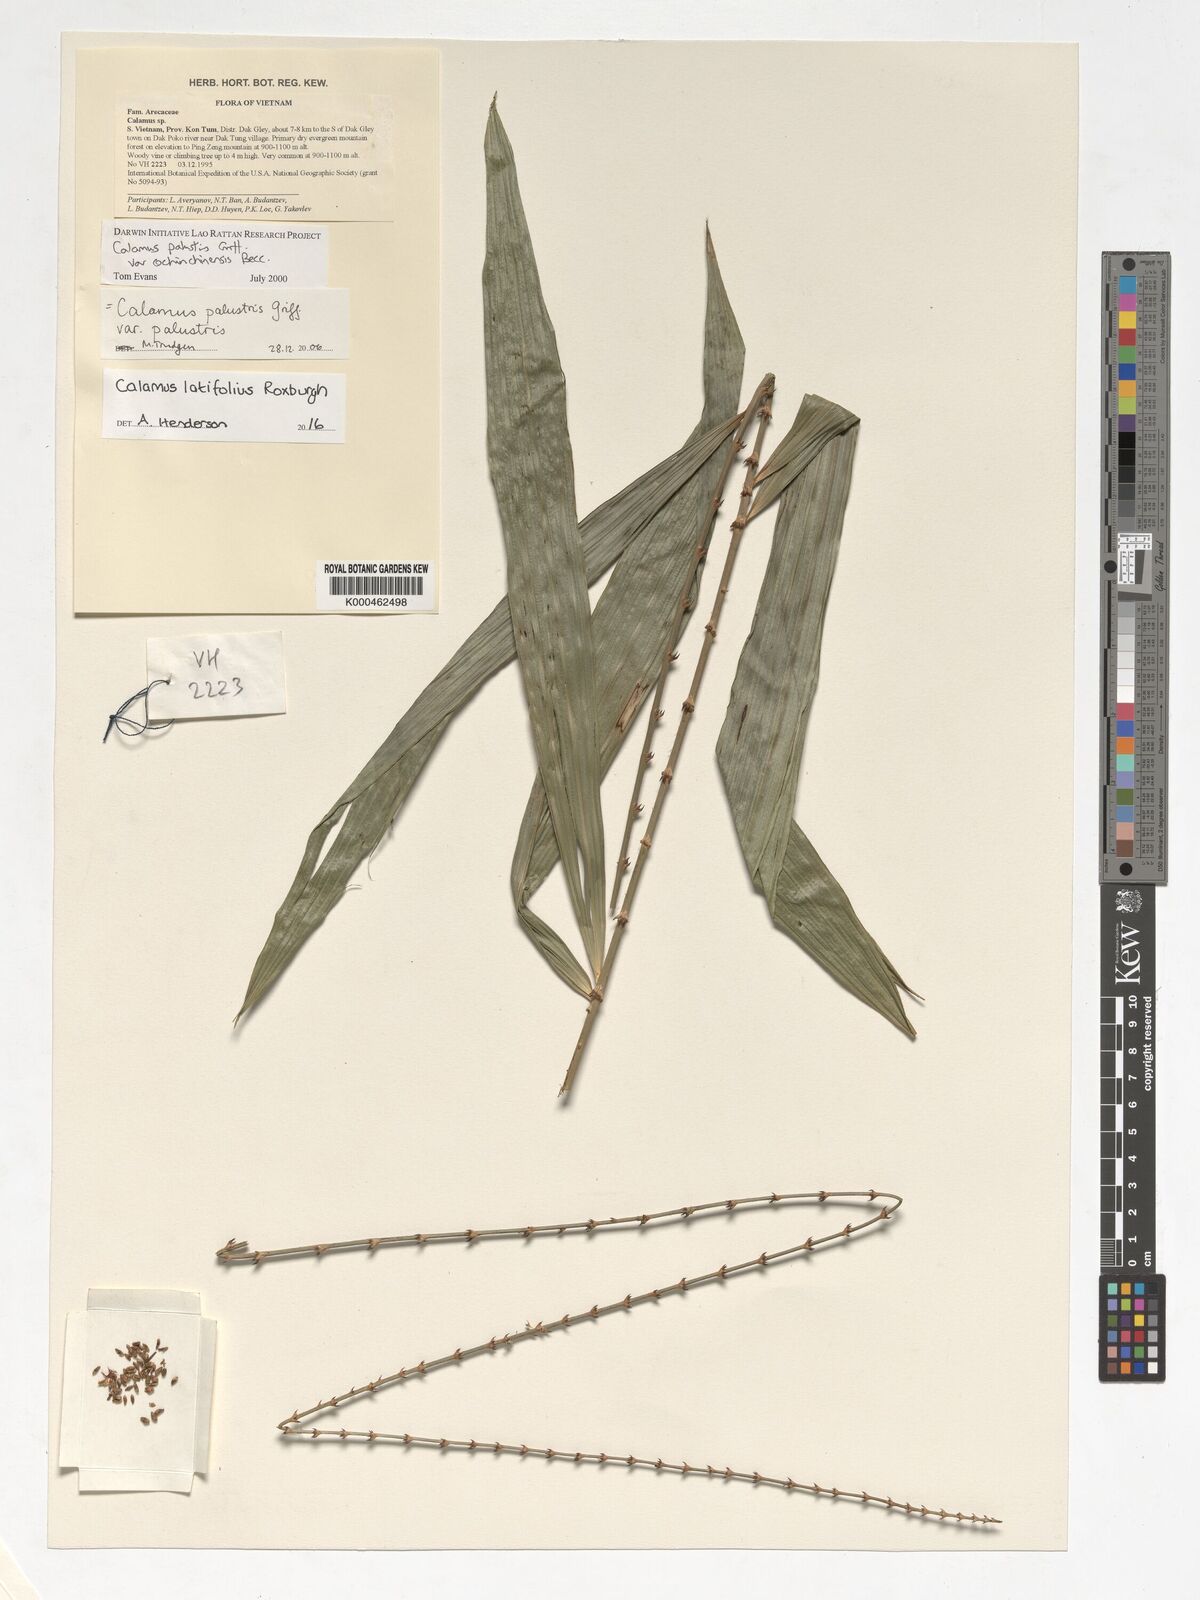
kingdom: Plantae
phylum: Tracheophyta
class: Liliopsida
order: Arecales
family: Arecaceae
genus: Calamus
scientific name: Calamus latifolius
